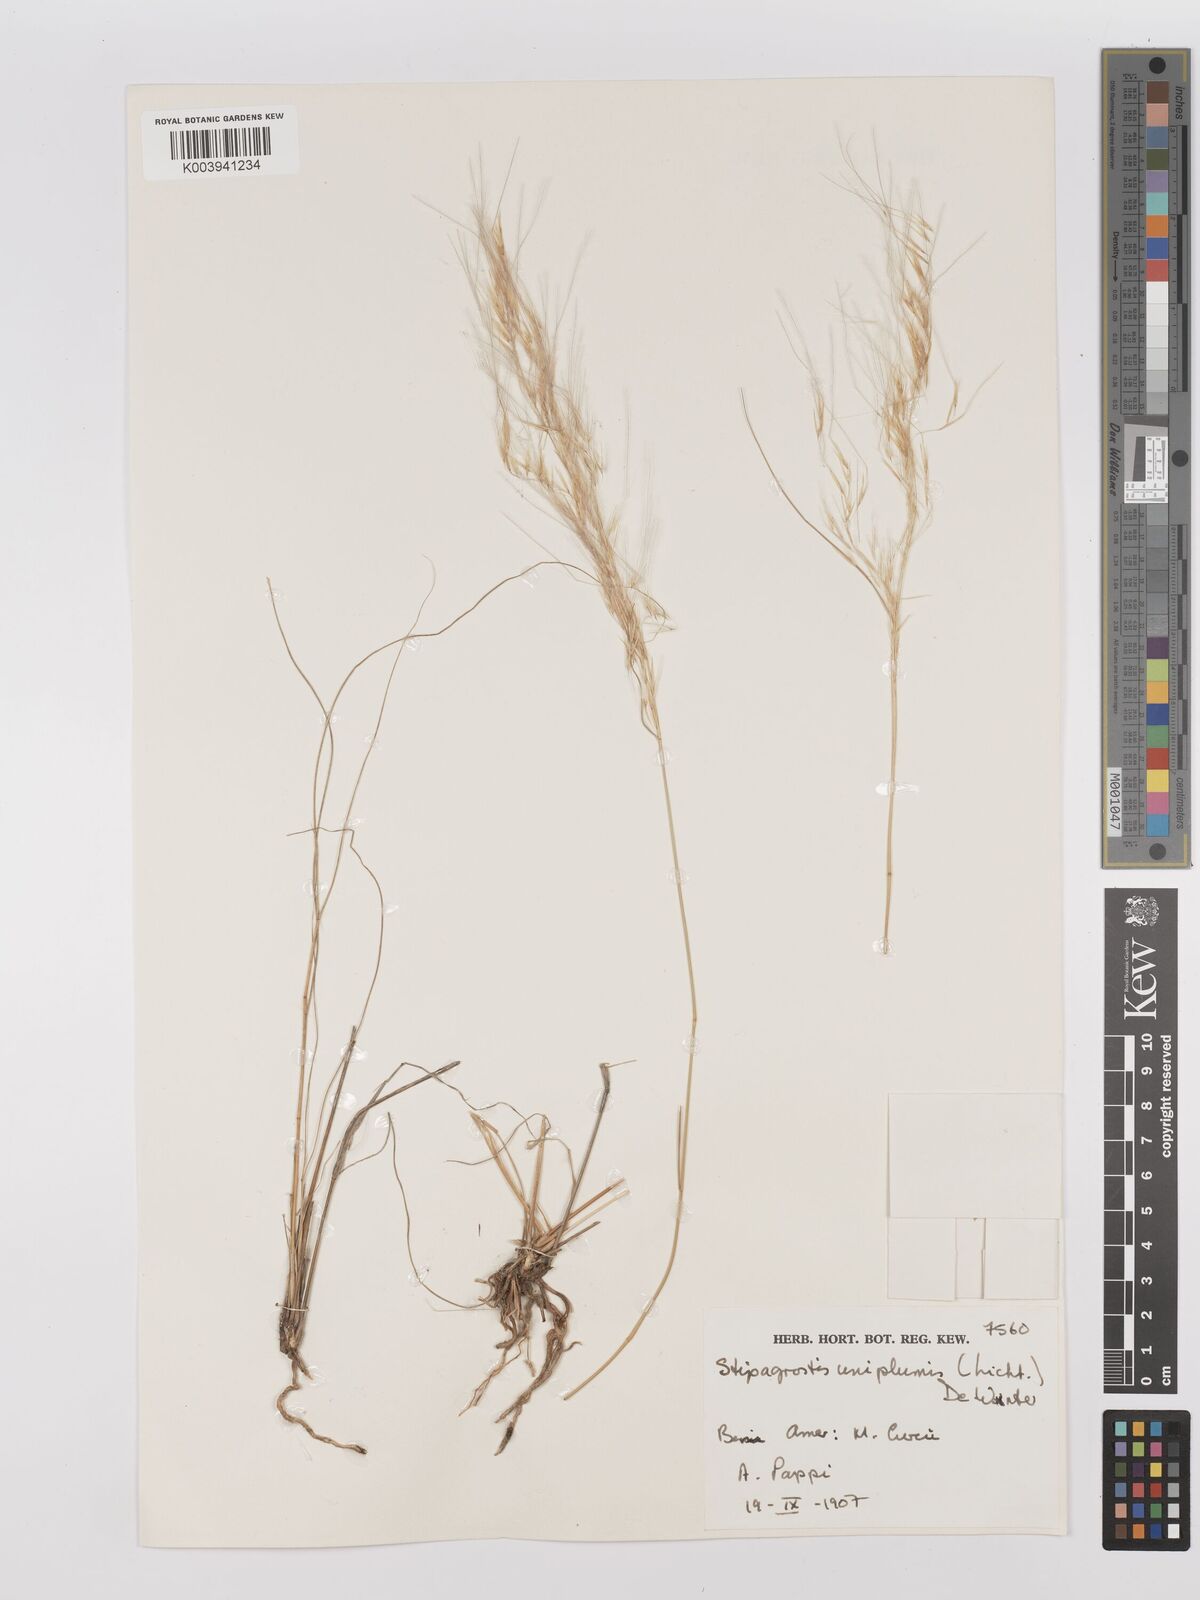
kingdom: Plantae
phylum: Tracheophyta
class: Liliopsida
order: Poales
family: Poaceae
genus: Stipagrostis
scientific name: Stipagrostis uniplumis
